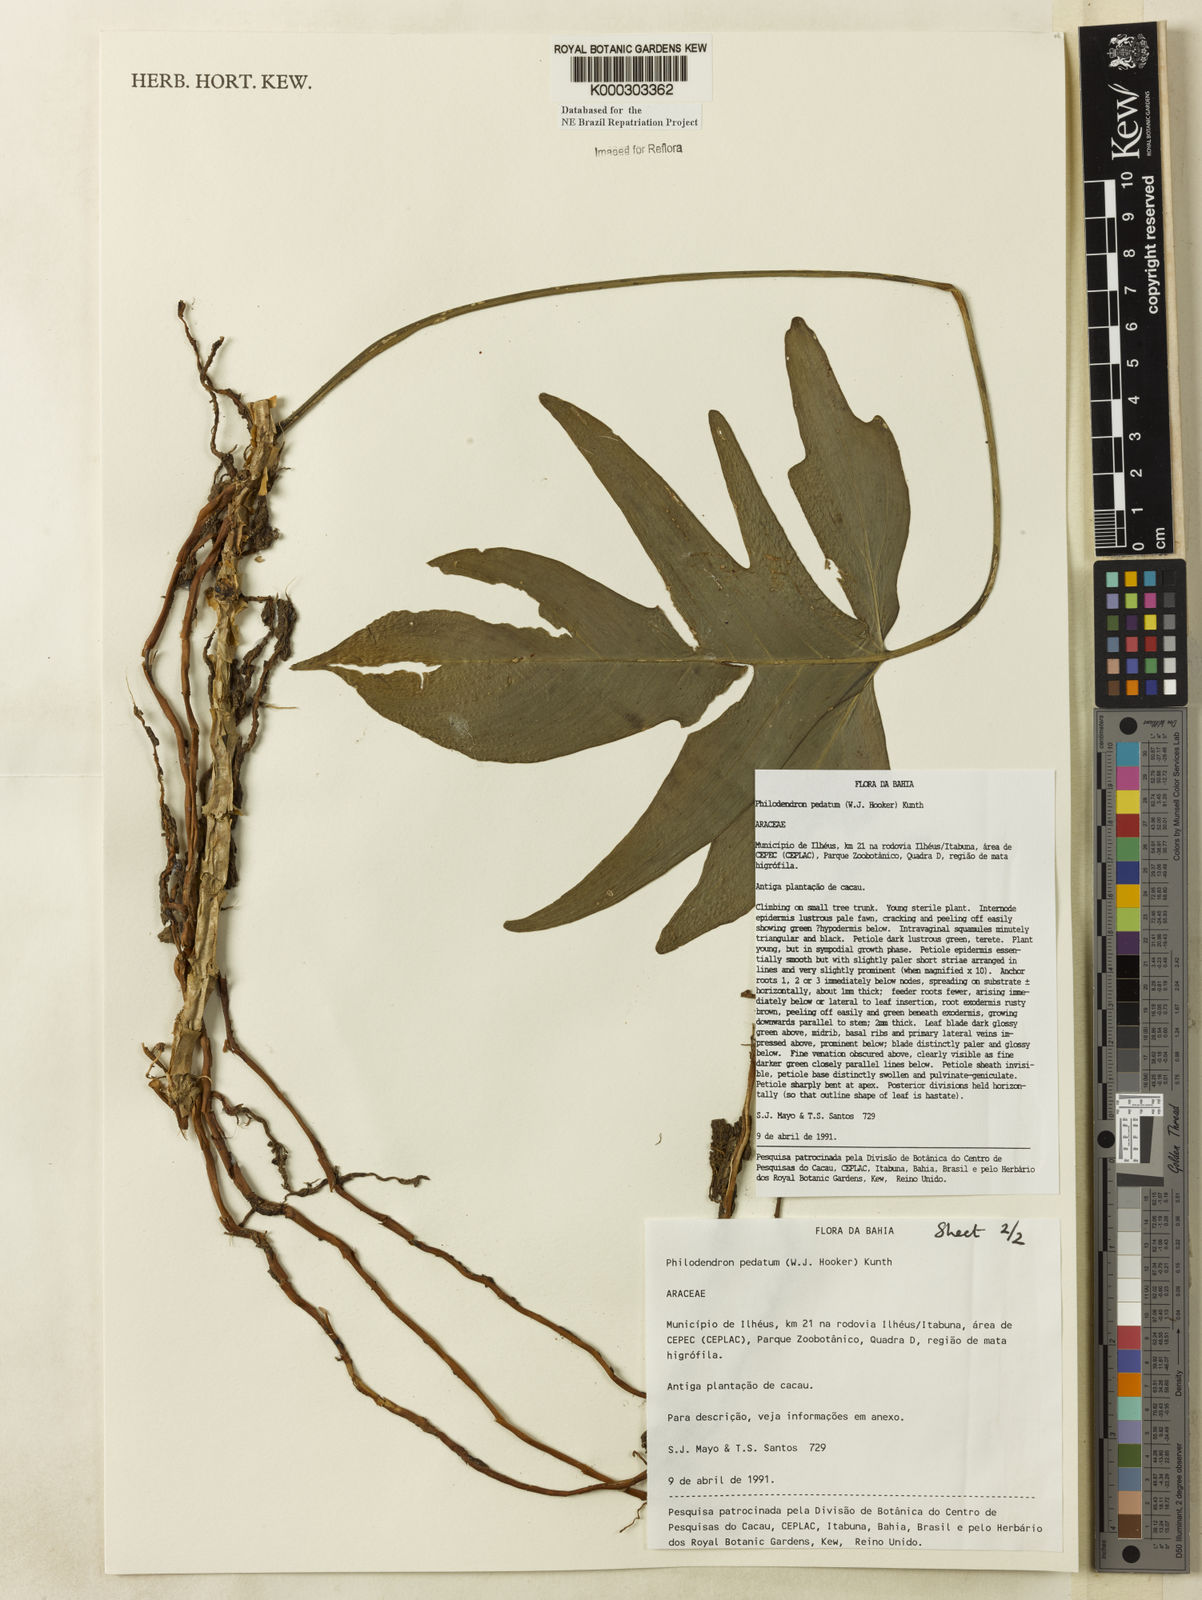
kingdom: Plantae
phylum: Tracheophyta
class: Liliopsida
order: Alismatales
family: Araceae
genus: Philodendron
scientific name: Philodendron pedatum
